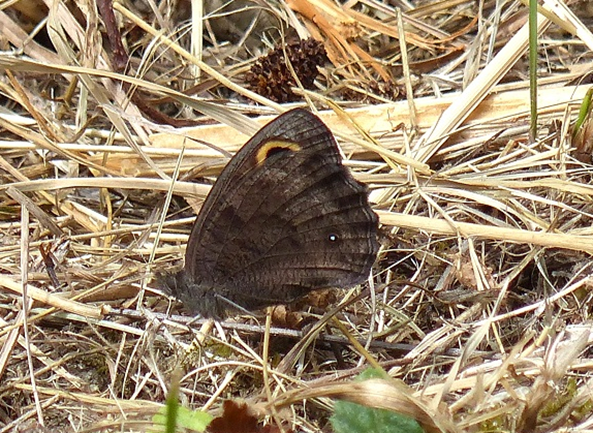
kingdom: Animalia
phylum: Arthropoda
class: Insecta
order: Lepidoptera
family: Nymphalidae
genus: Cercyonis
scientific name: Cercyonis pegala
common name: Common Wood-Nymph
